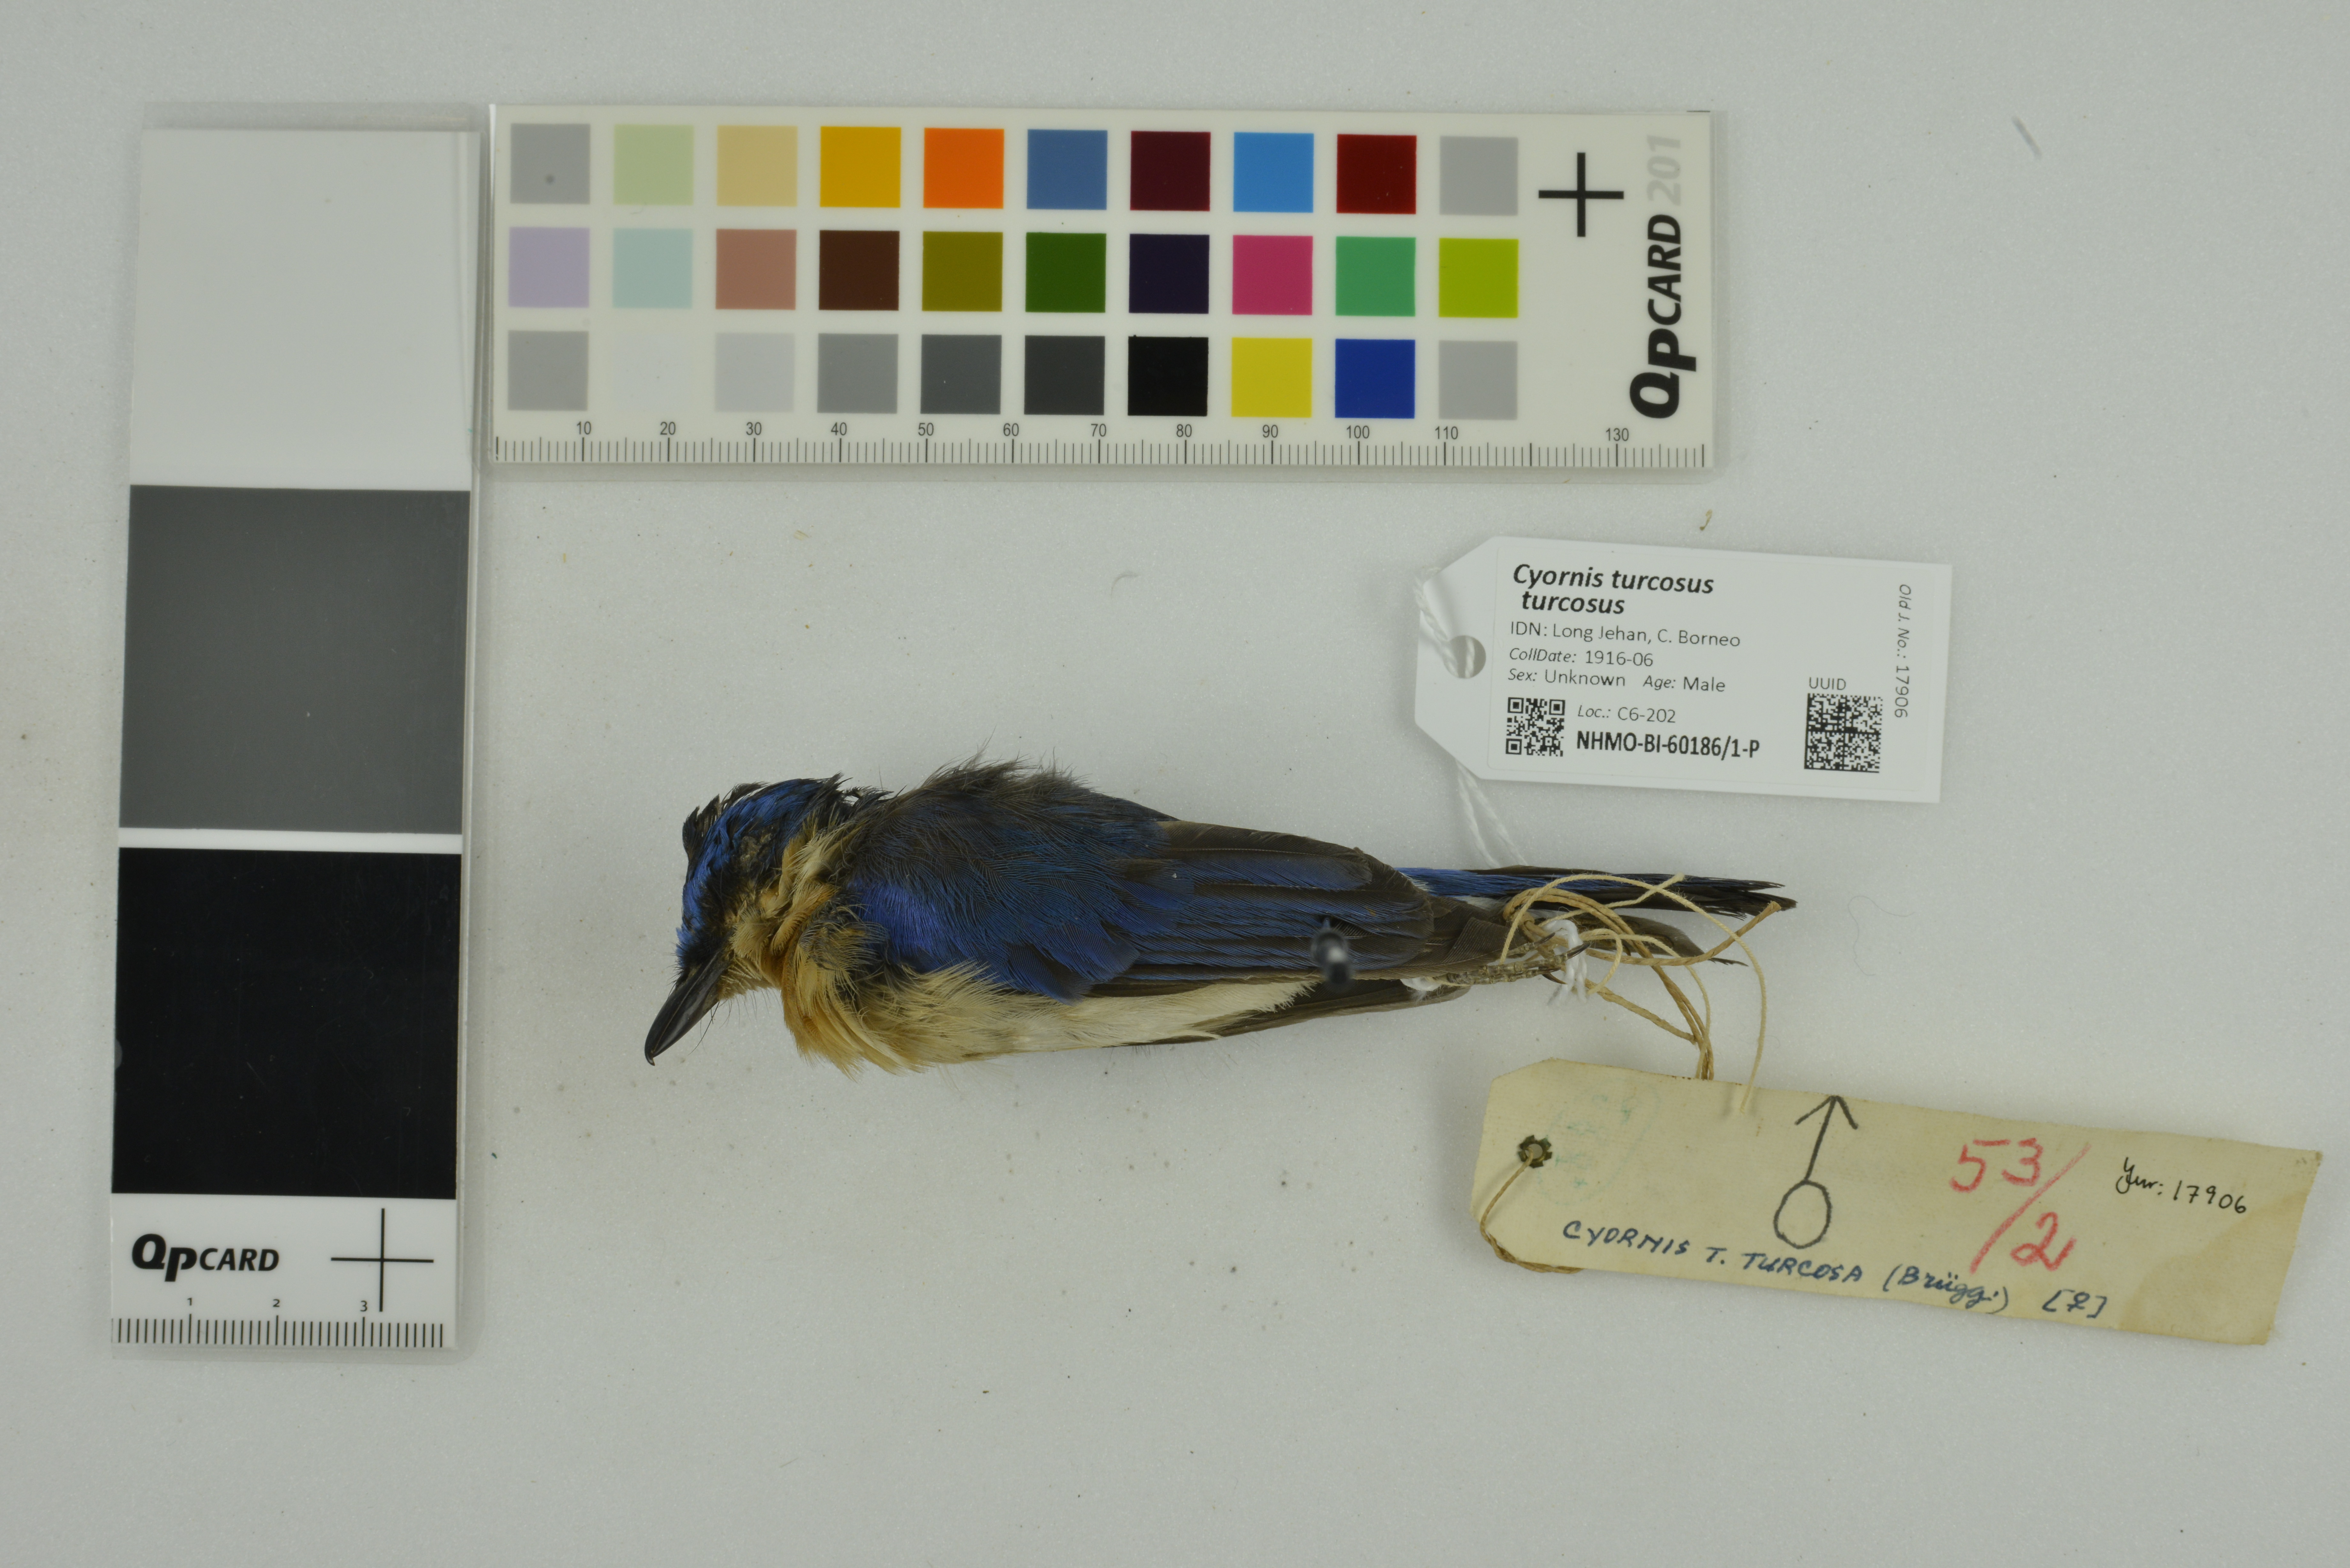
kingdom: Animalia
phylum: Chordata
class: Aves
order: Passeriformes
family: Muscicapidae
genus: Cyornis
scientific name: Cyornis turcosus
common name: Malaysian blue flycatcher
